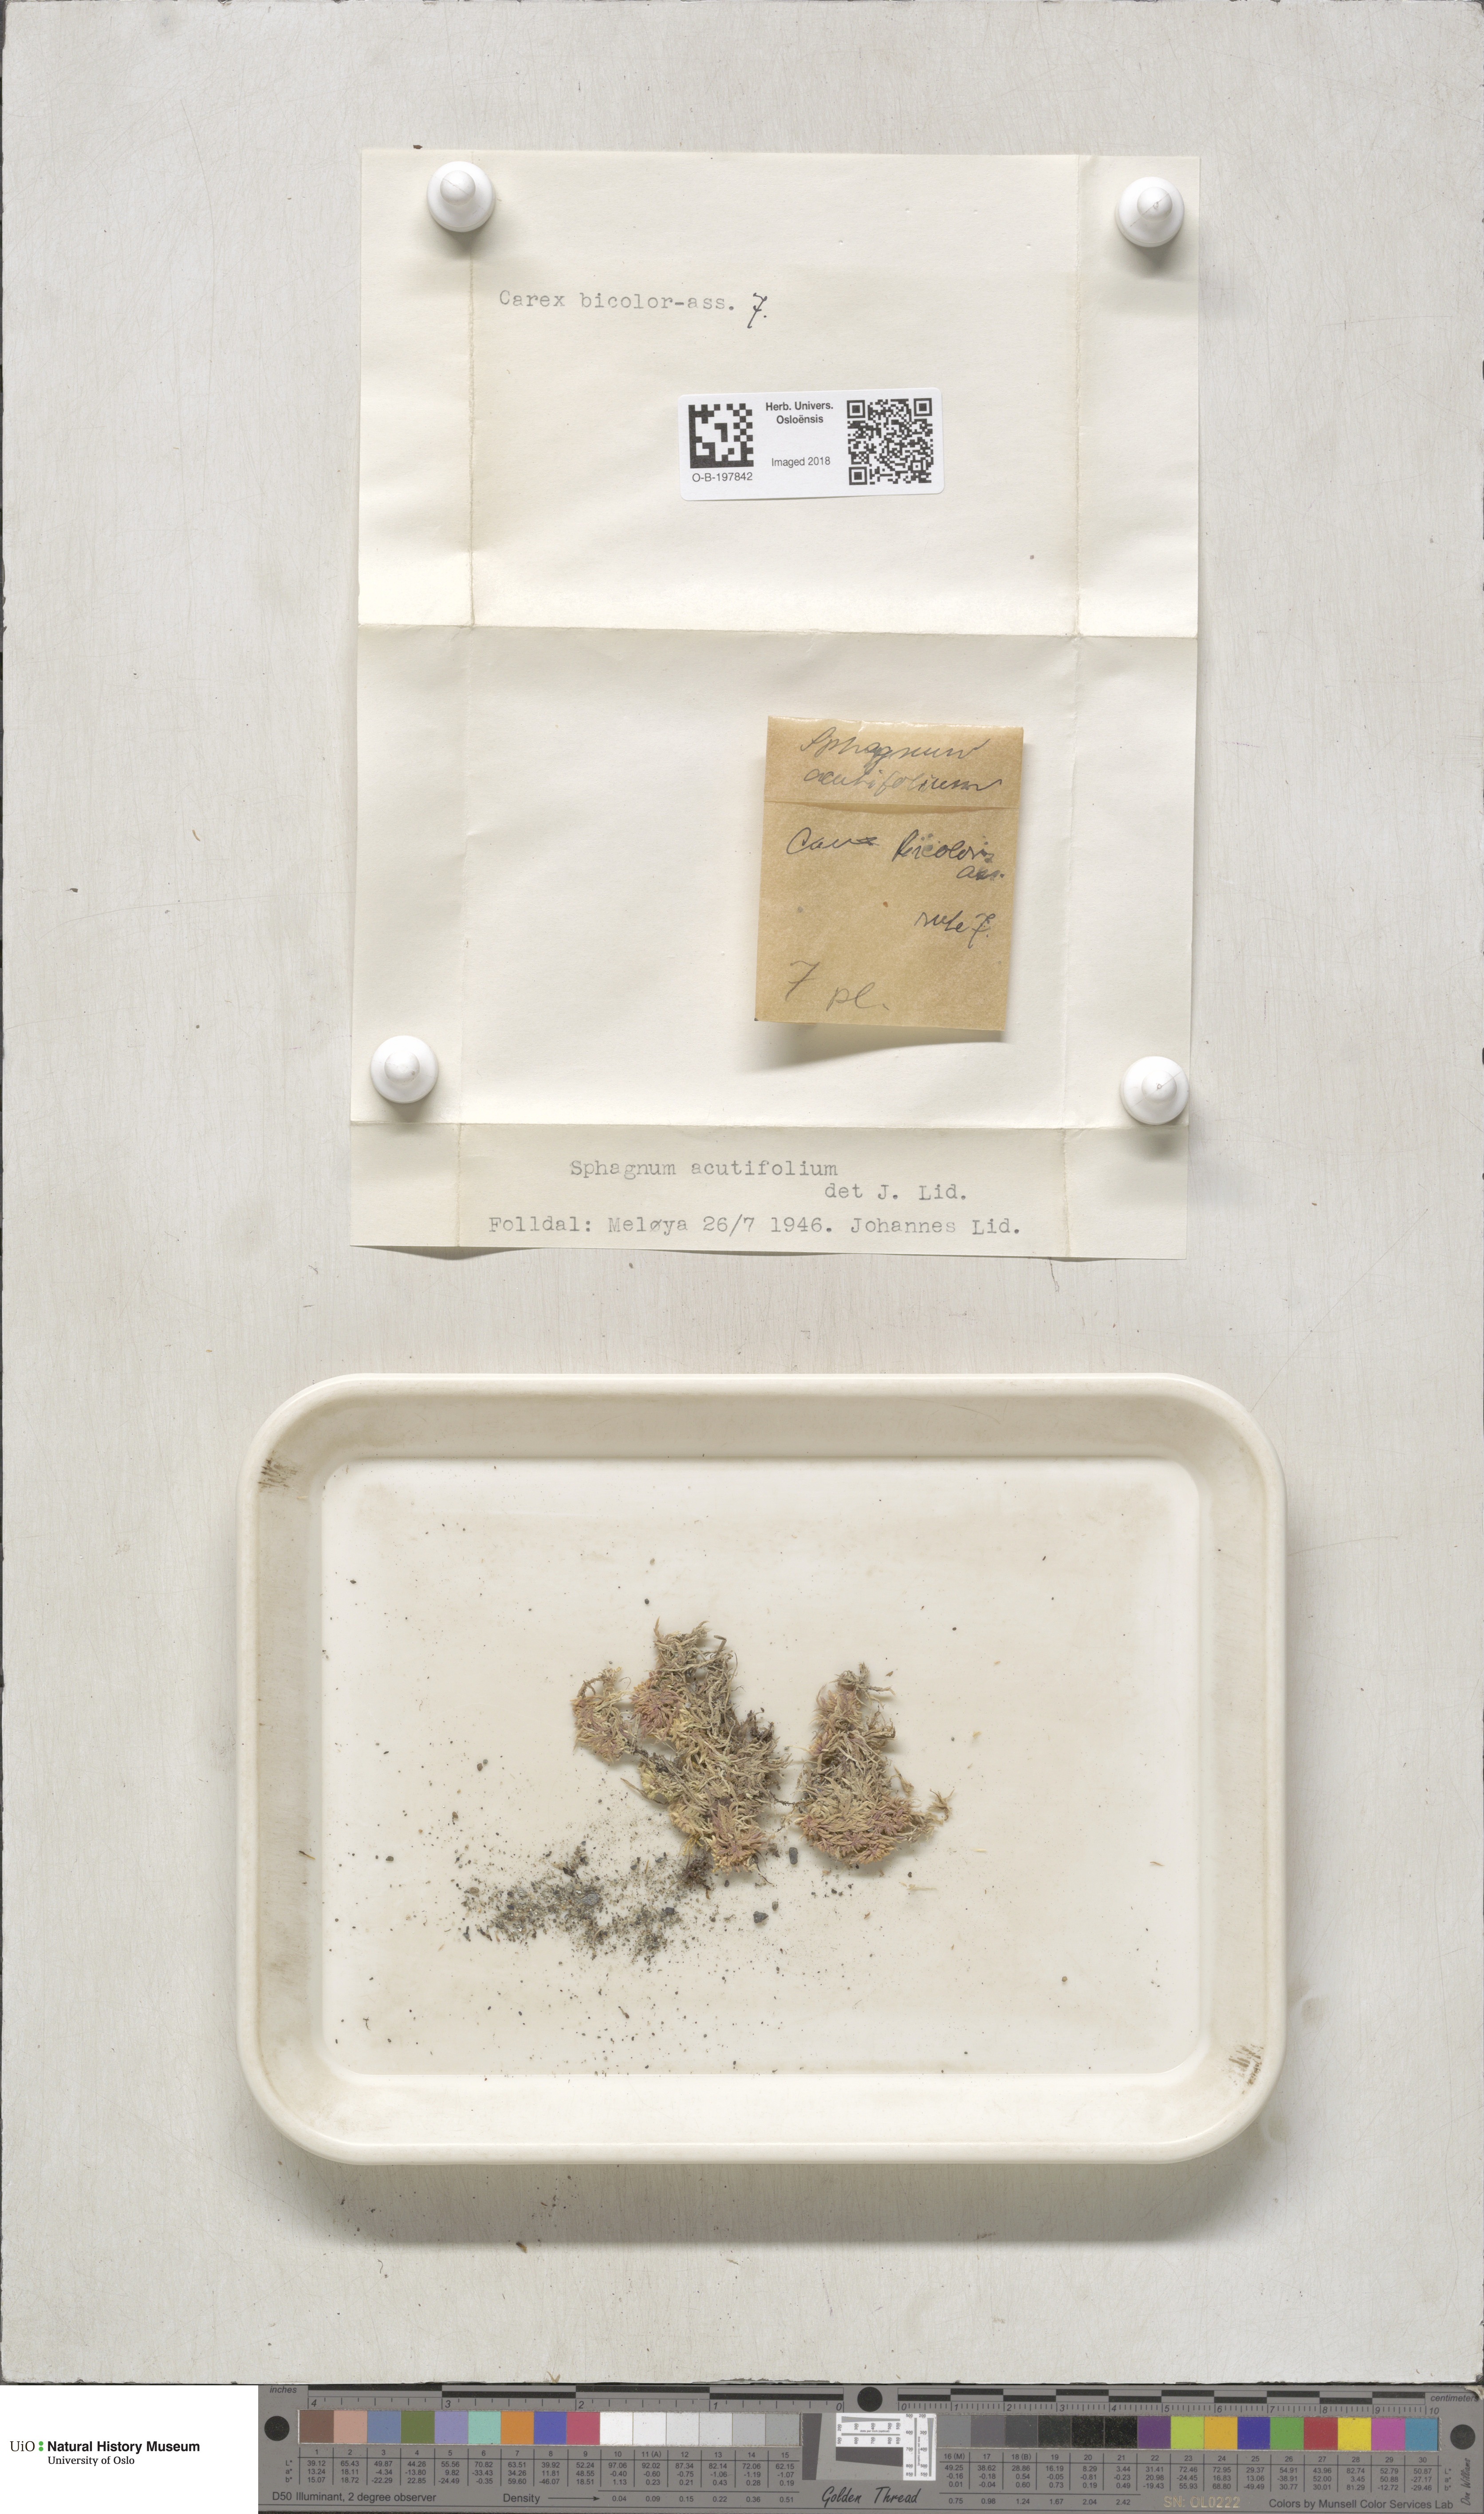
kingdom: Plantae
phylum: Bryophyta
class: Sphagnopsida
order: Sphagnales
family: Sphagnaceae
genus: Sphagnum
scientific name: Sphagnum capillifolium
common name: Small red peat moss
